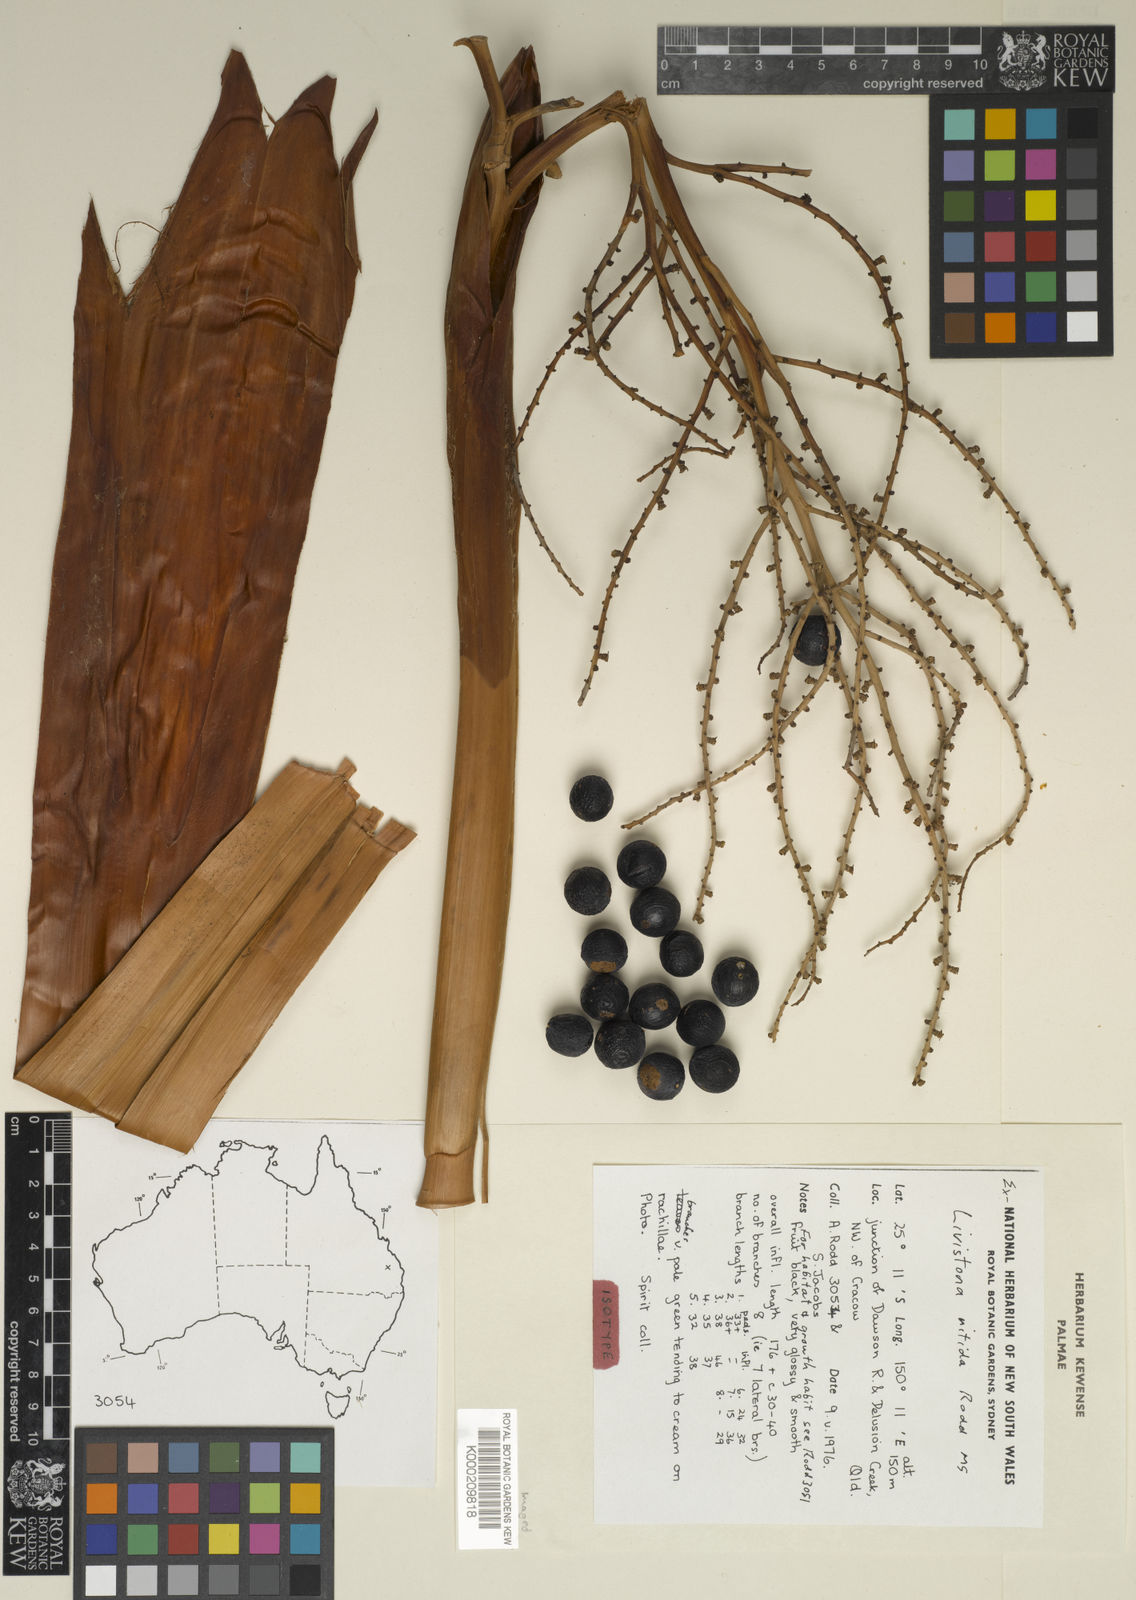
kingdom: Plantae
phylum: Tracheophyta
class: Liliopsida
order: Arecales
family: Arecaceae
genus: Livistona
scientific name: Livistona nitida
